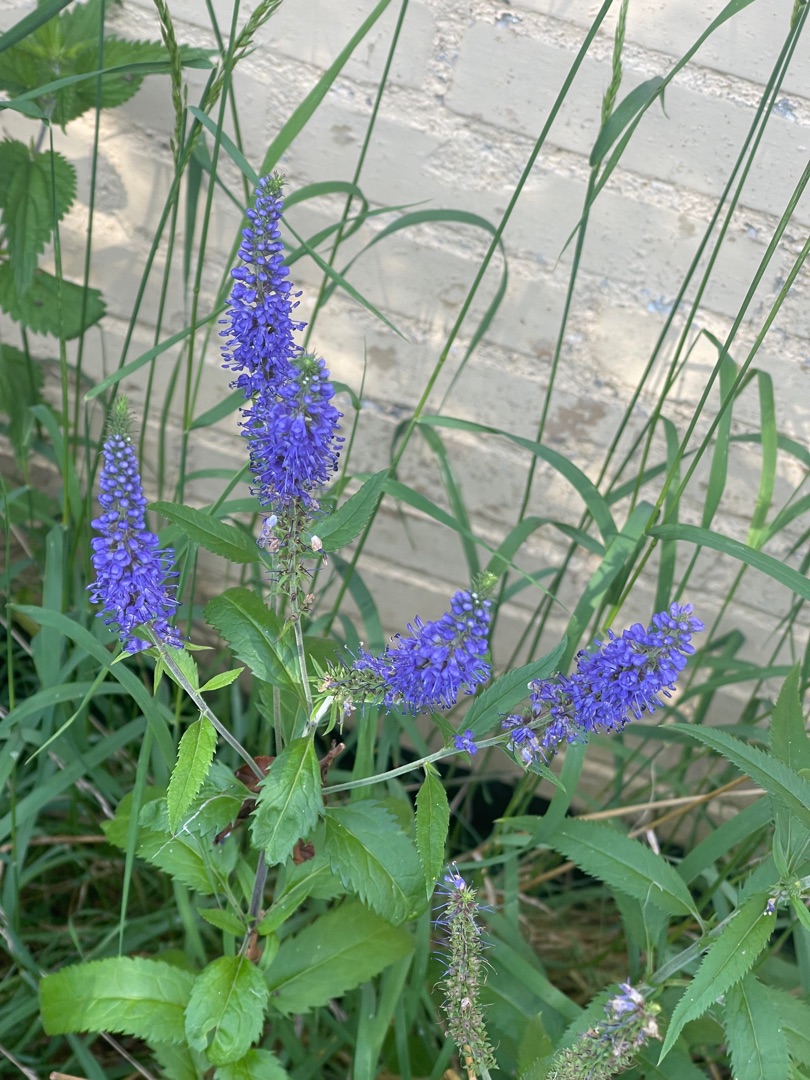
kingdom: Plantae
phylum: Tracheophyta
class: Magnoliopsida
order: Lamiales
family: Plantaginaceae
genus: Veronica
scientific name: Veronica longifolia
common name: Langbladet ærenpris
